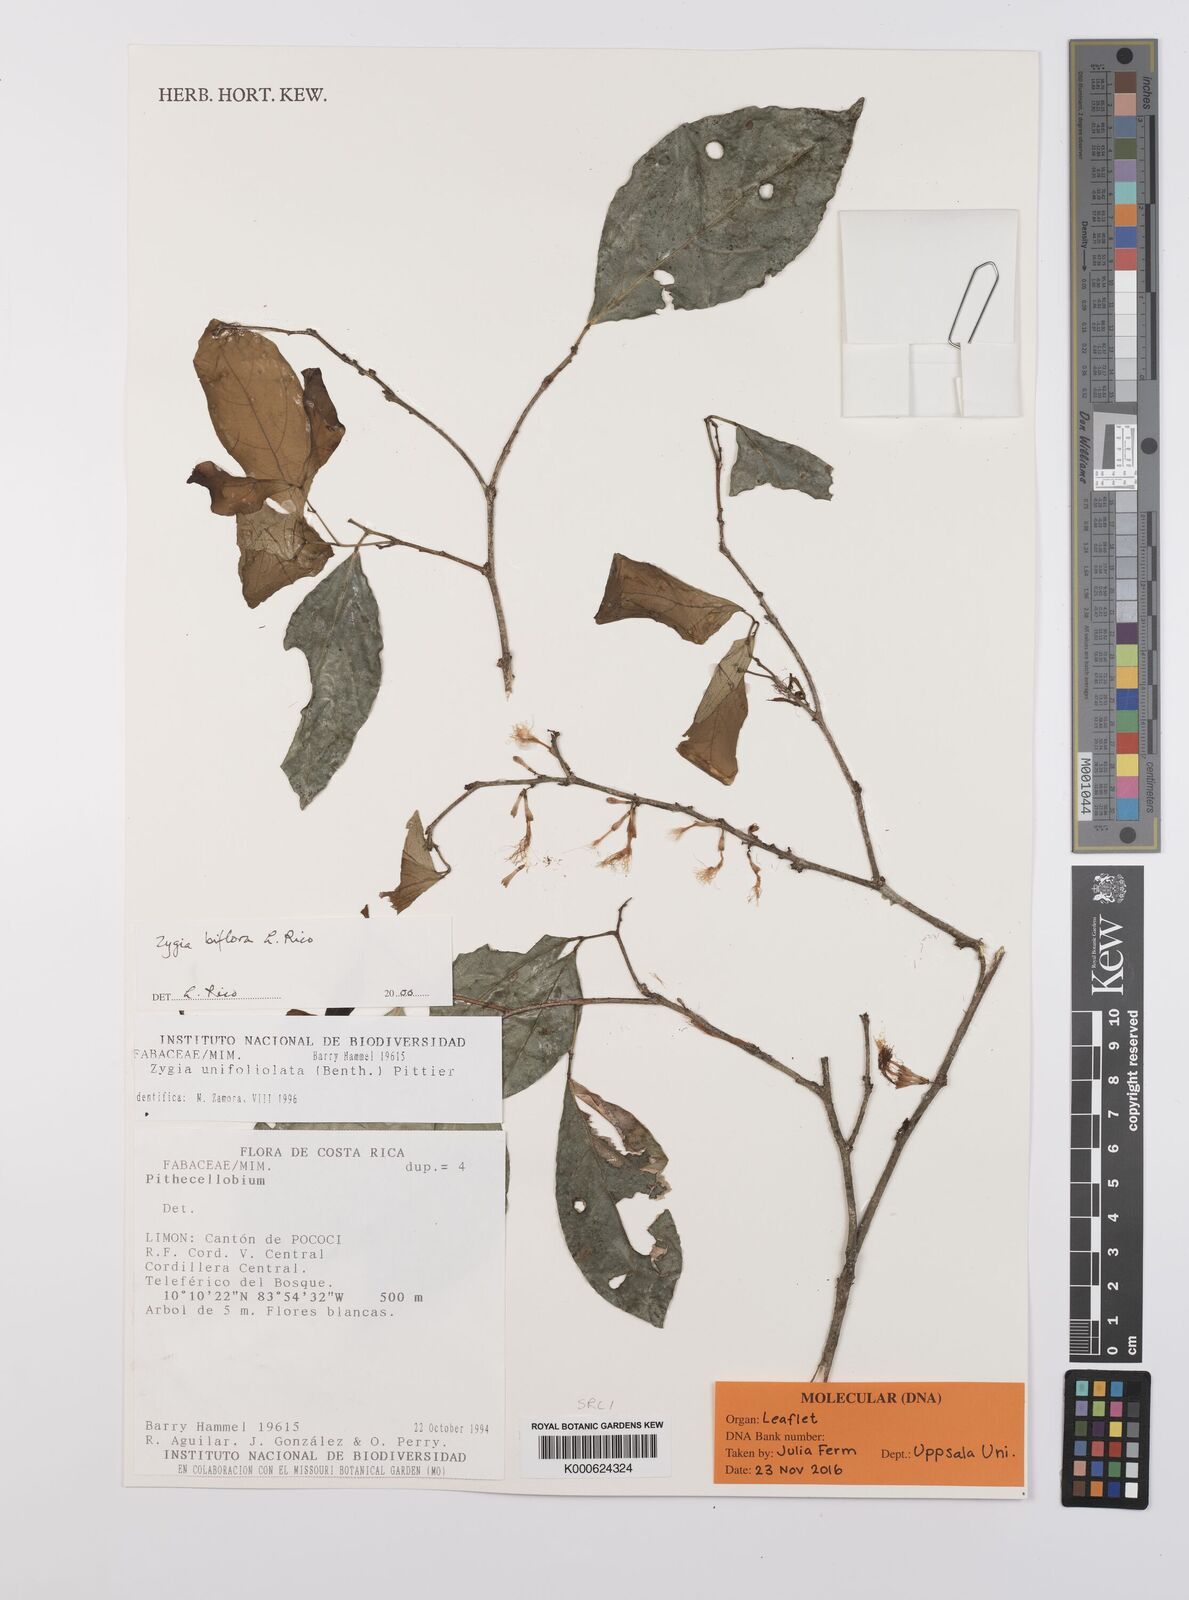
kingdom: Plantae
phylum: Tracheophyta
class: Magnoliopsida
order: Fabales
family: Fabaceae
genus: Zygia
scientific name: Zygia biflora
